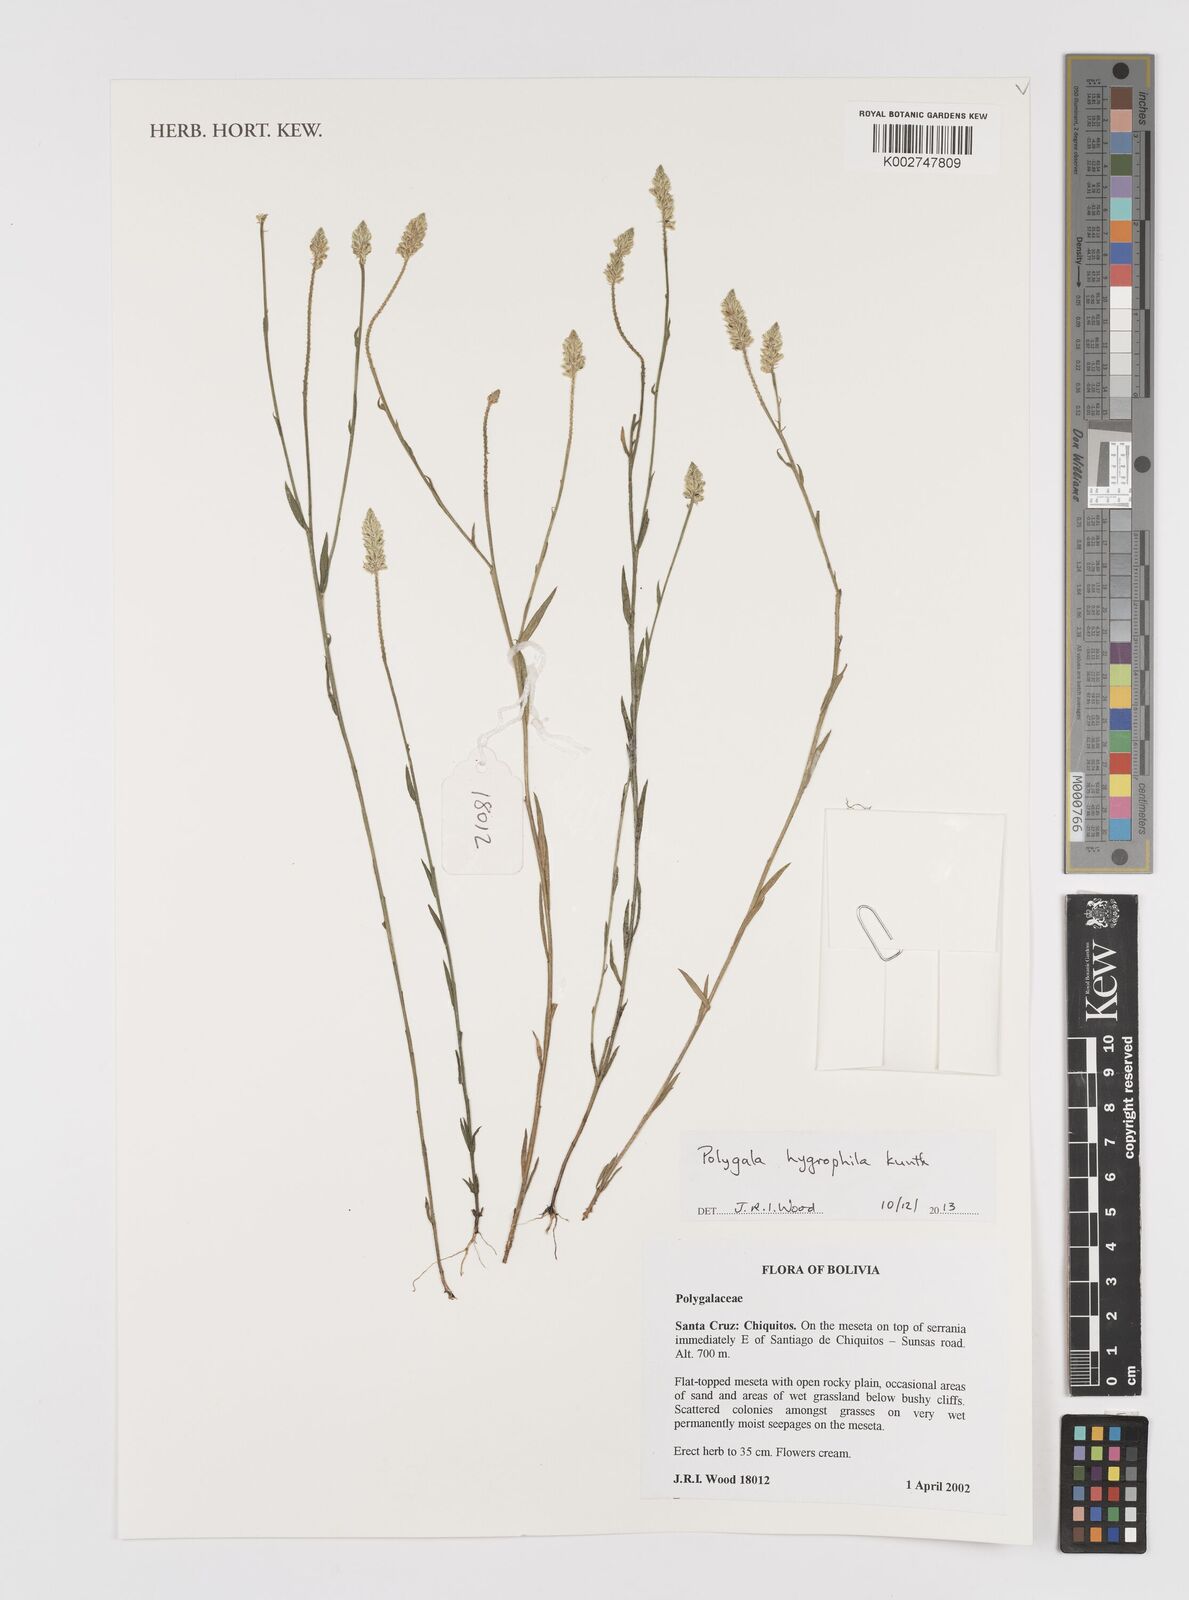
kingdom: Plantae
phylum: Tracheophyta
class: Magnoliopsida
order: Fabales
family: Polygalaceae
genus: Polygala
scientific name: Polygala hygrophila
